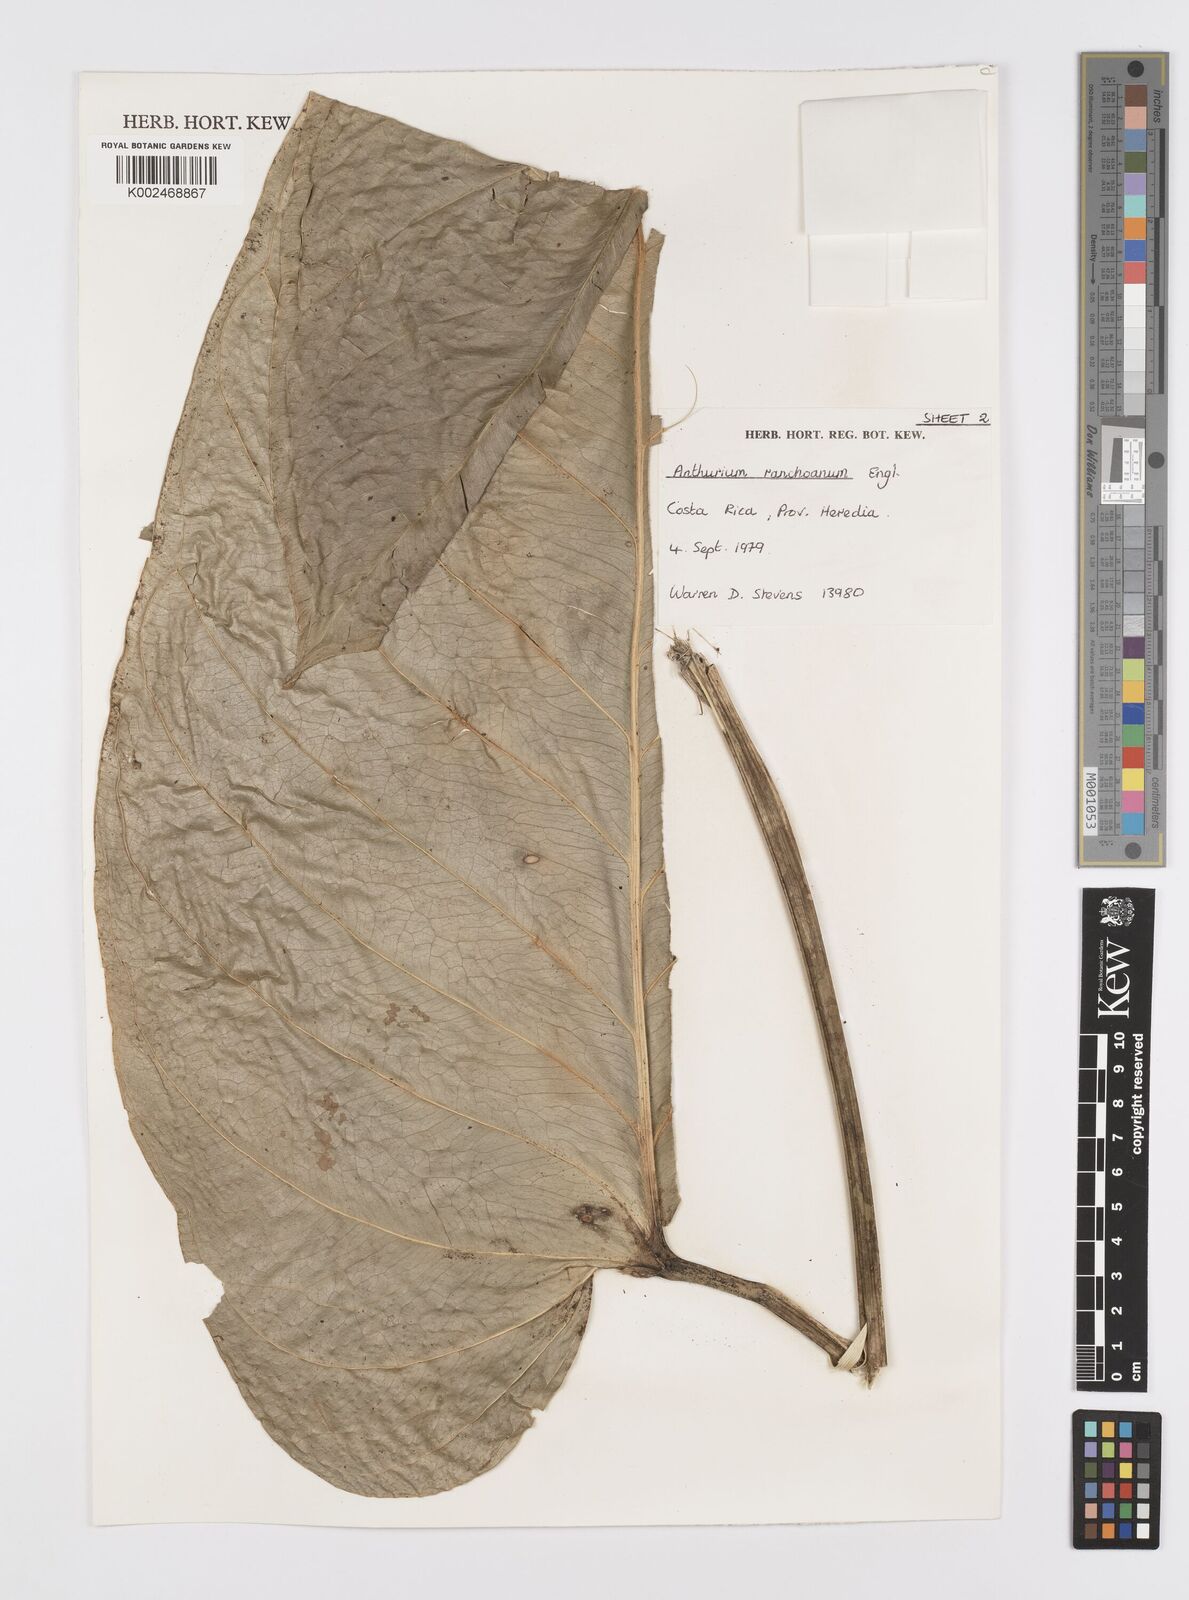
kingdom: Plantae
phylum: Tracheophyta
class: Liliopsida
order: Alismatales
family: Araceae
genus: Anthurium
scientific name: Anthurium ranchoanum
